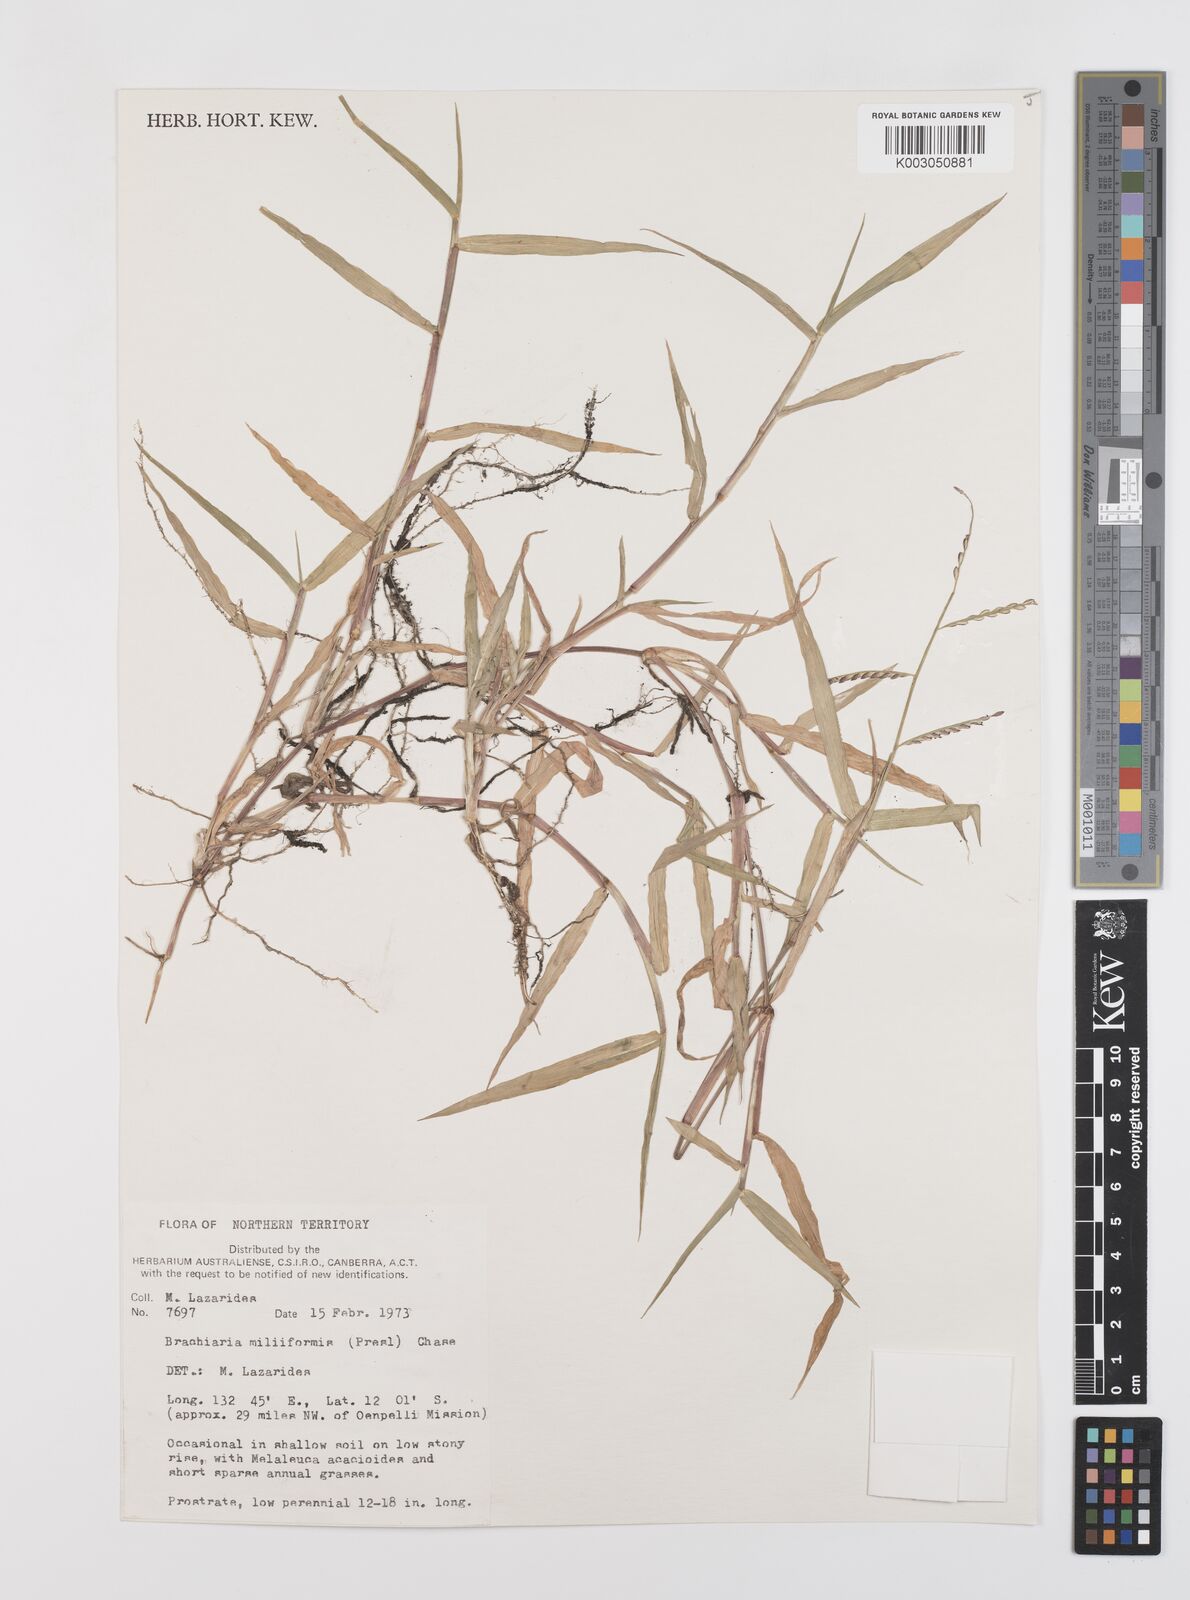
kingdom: Plantae
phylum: Tracheophyta
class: Liliopsida
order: Poales
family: Poaceae
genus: Urochloa
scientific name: Urochloa subquadripara
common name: Armgrass millet
